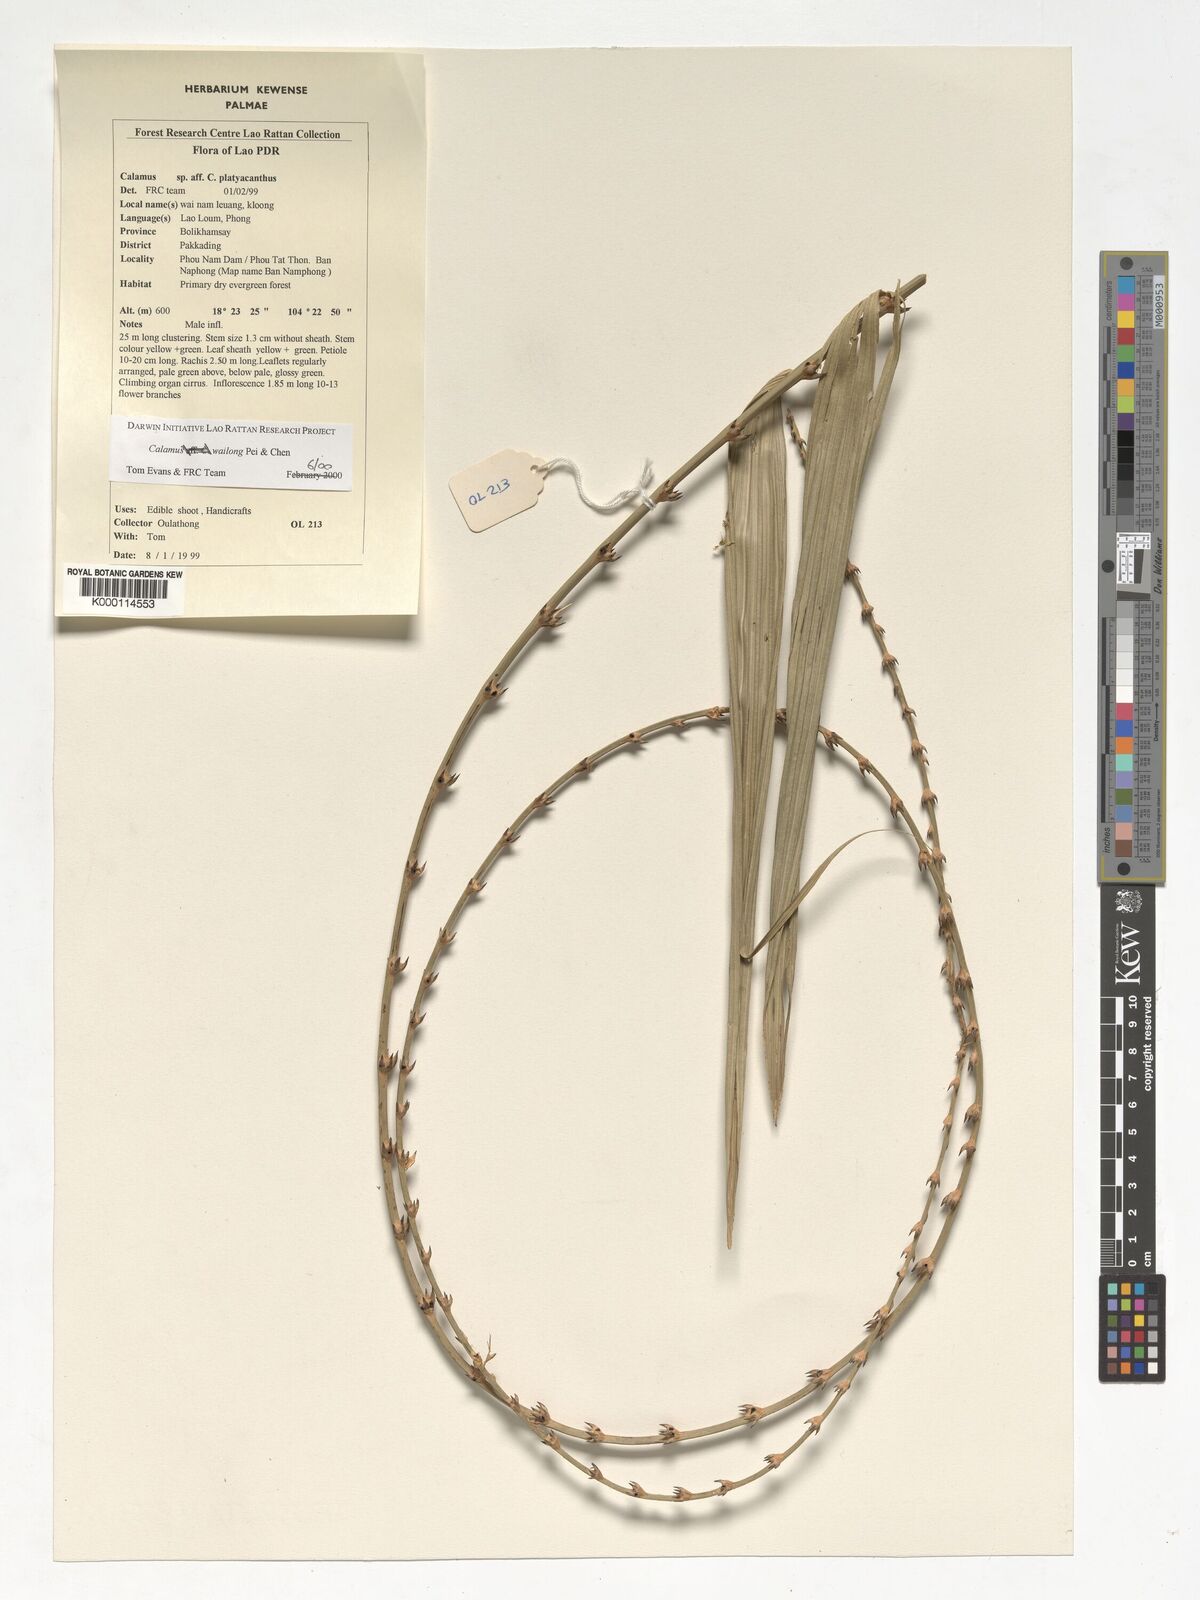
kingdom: Plantae
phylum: Tracheophyta
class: Liliopsida
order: Arecales
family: Arecaceae
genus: Calamus
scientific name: Calamus inermis
